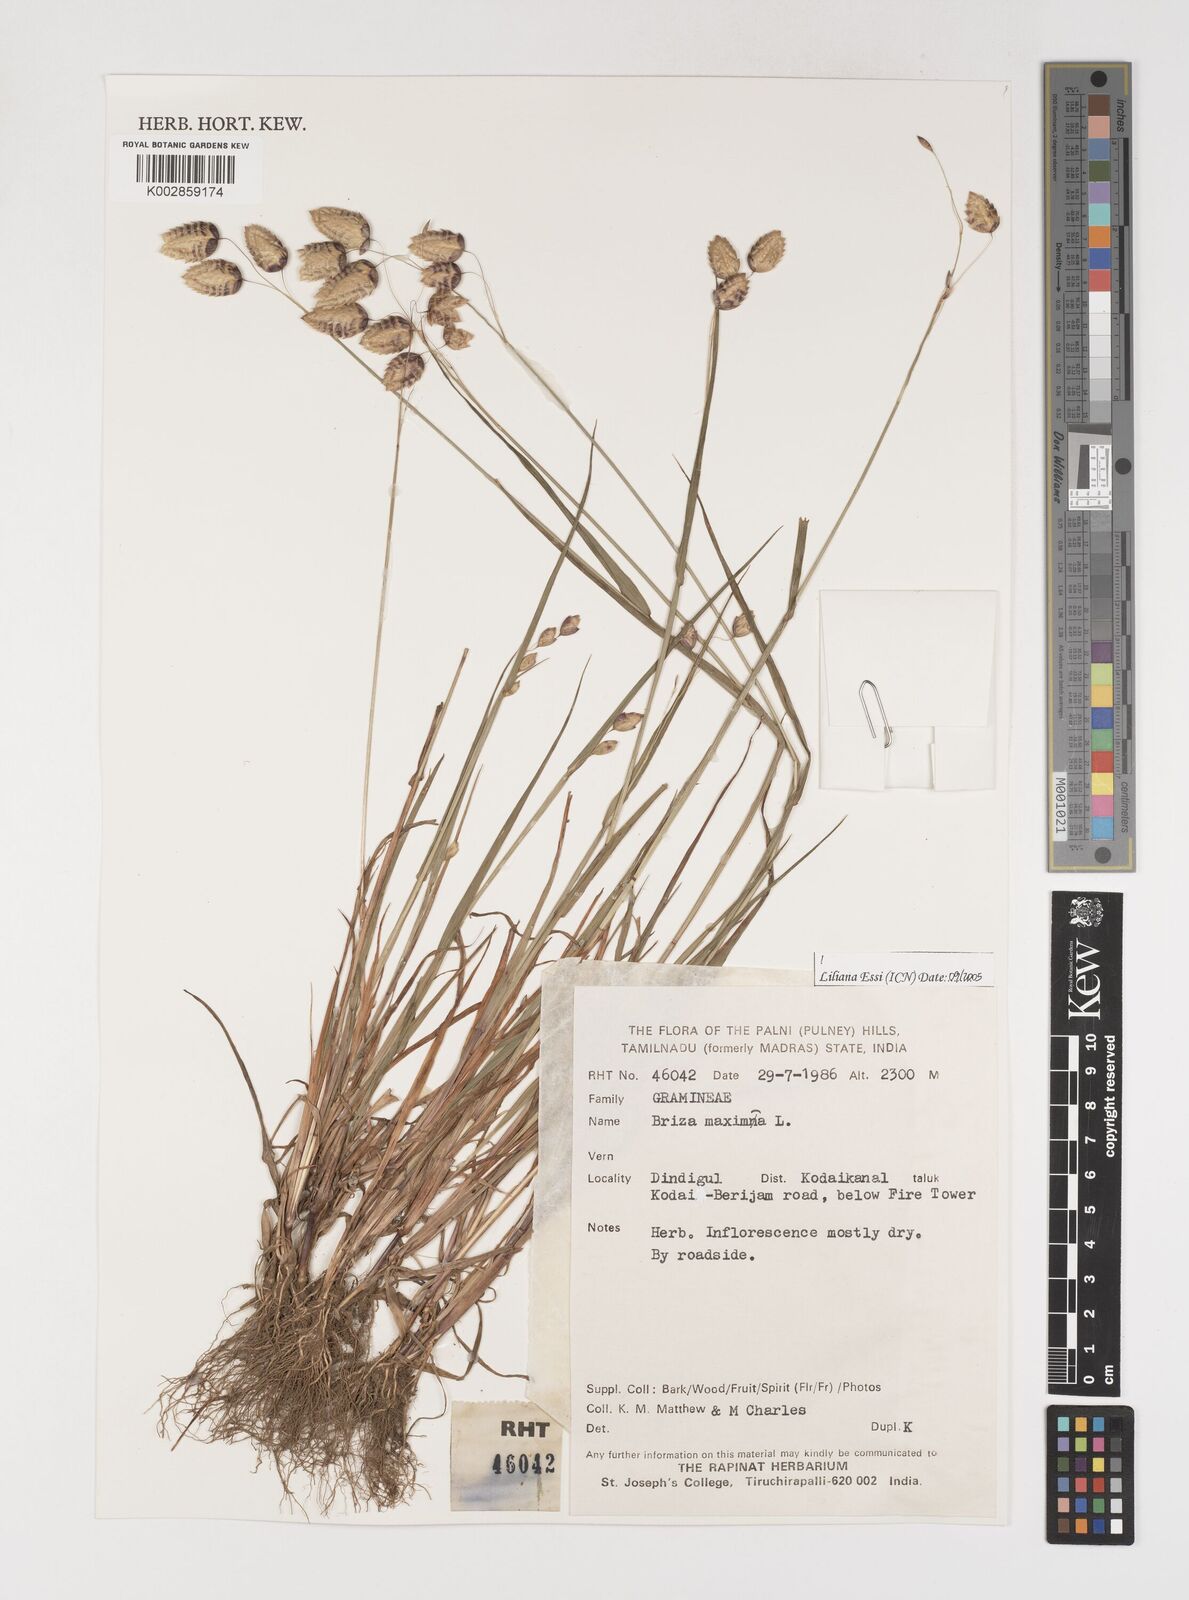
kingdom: Plantae
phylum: Tracheophyta
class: Liliopsida
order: Poales
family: Poaceae
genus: Briza
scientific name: Briza maxima
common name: Big quakinggrass
